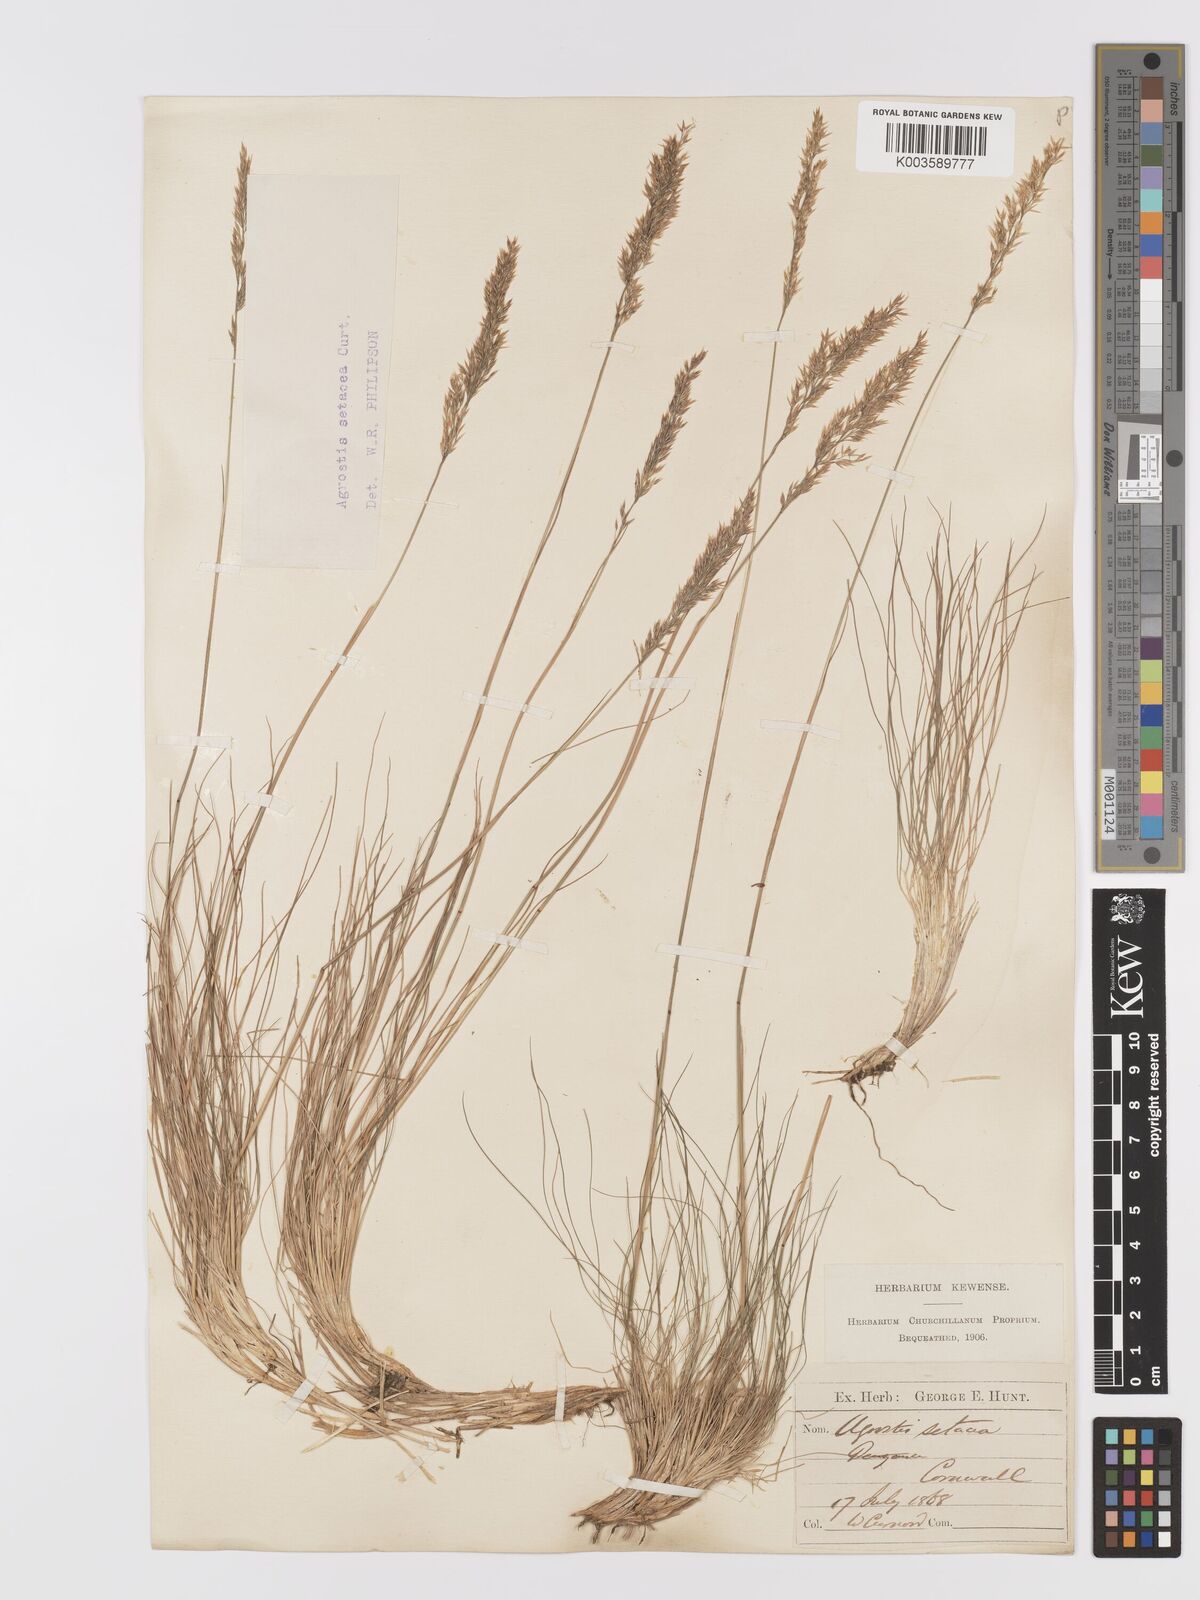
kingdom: Plantae
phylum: Tracheophyta
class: Liliopsida
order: Poales
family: Poaceae
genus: Alpagrostis
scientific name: Alpagrostis setacea
